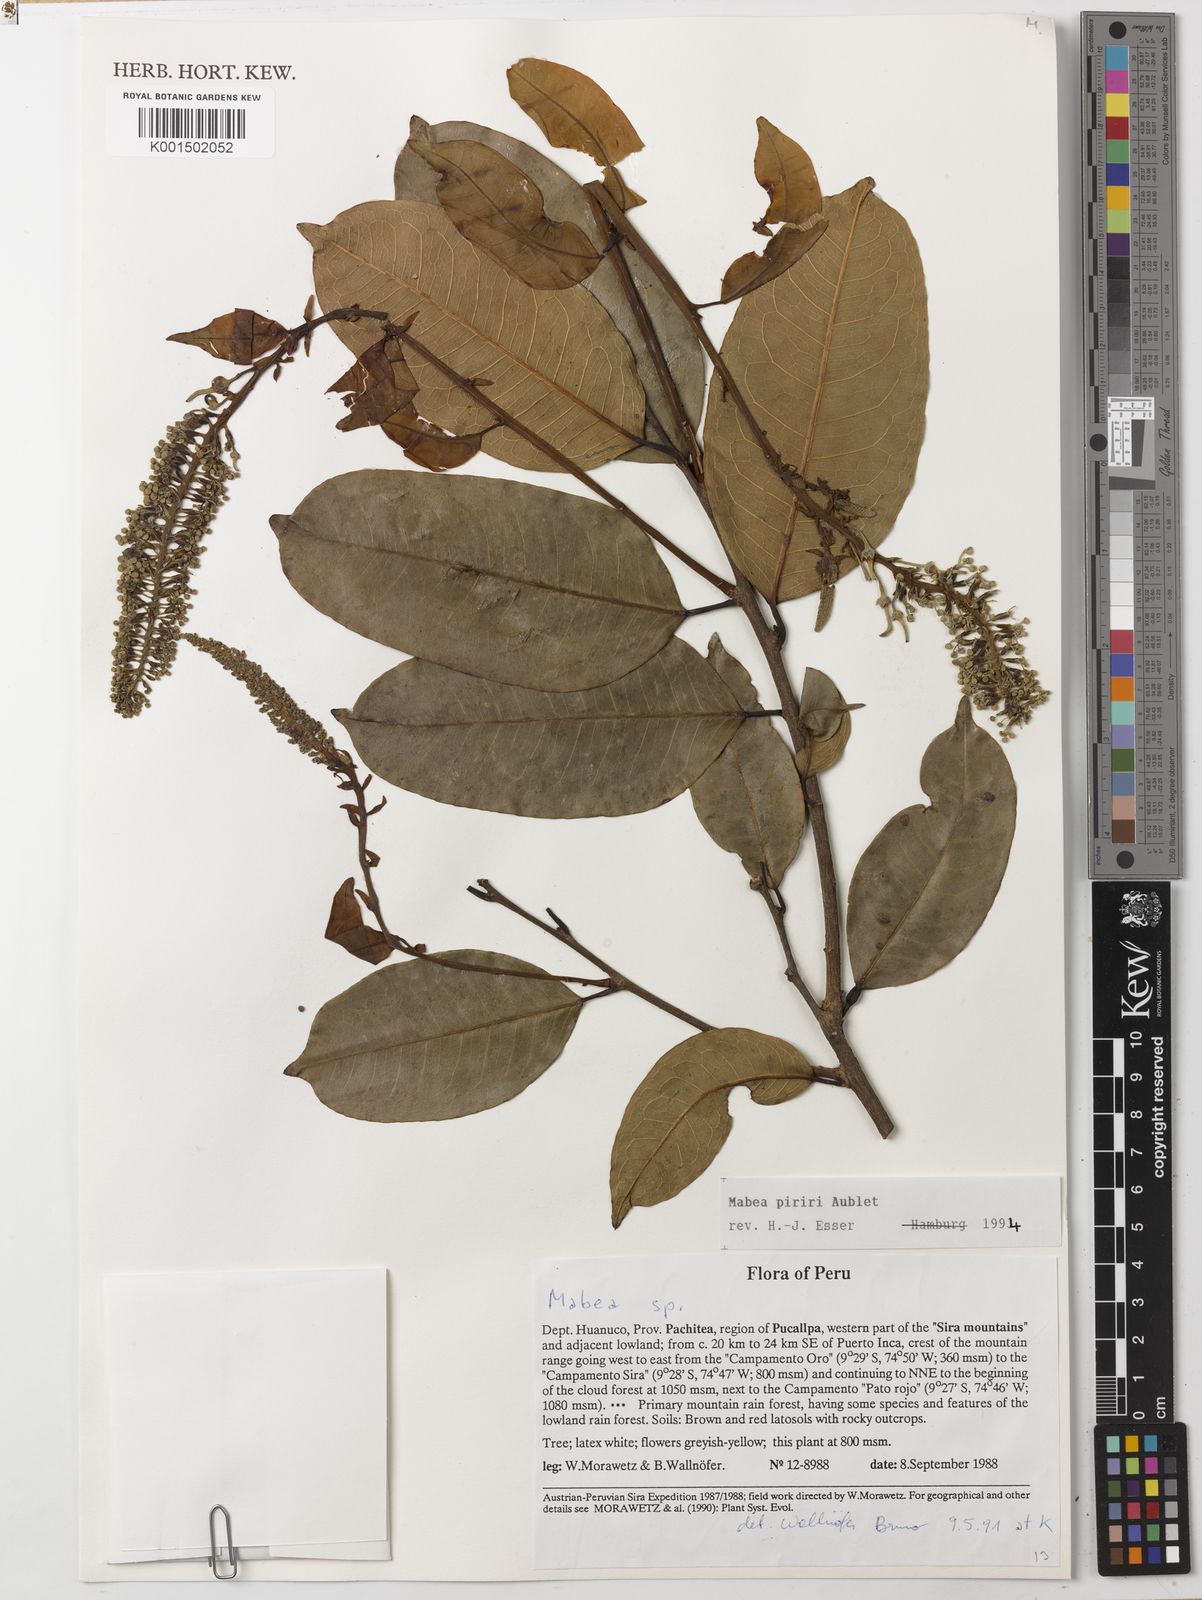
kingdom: Plantae
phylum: Tracheophyta
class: Magnoliopsida
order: Malpighiales
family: Euphorbiaceae
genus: Mabea
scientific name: Mabea piriri
